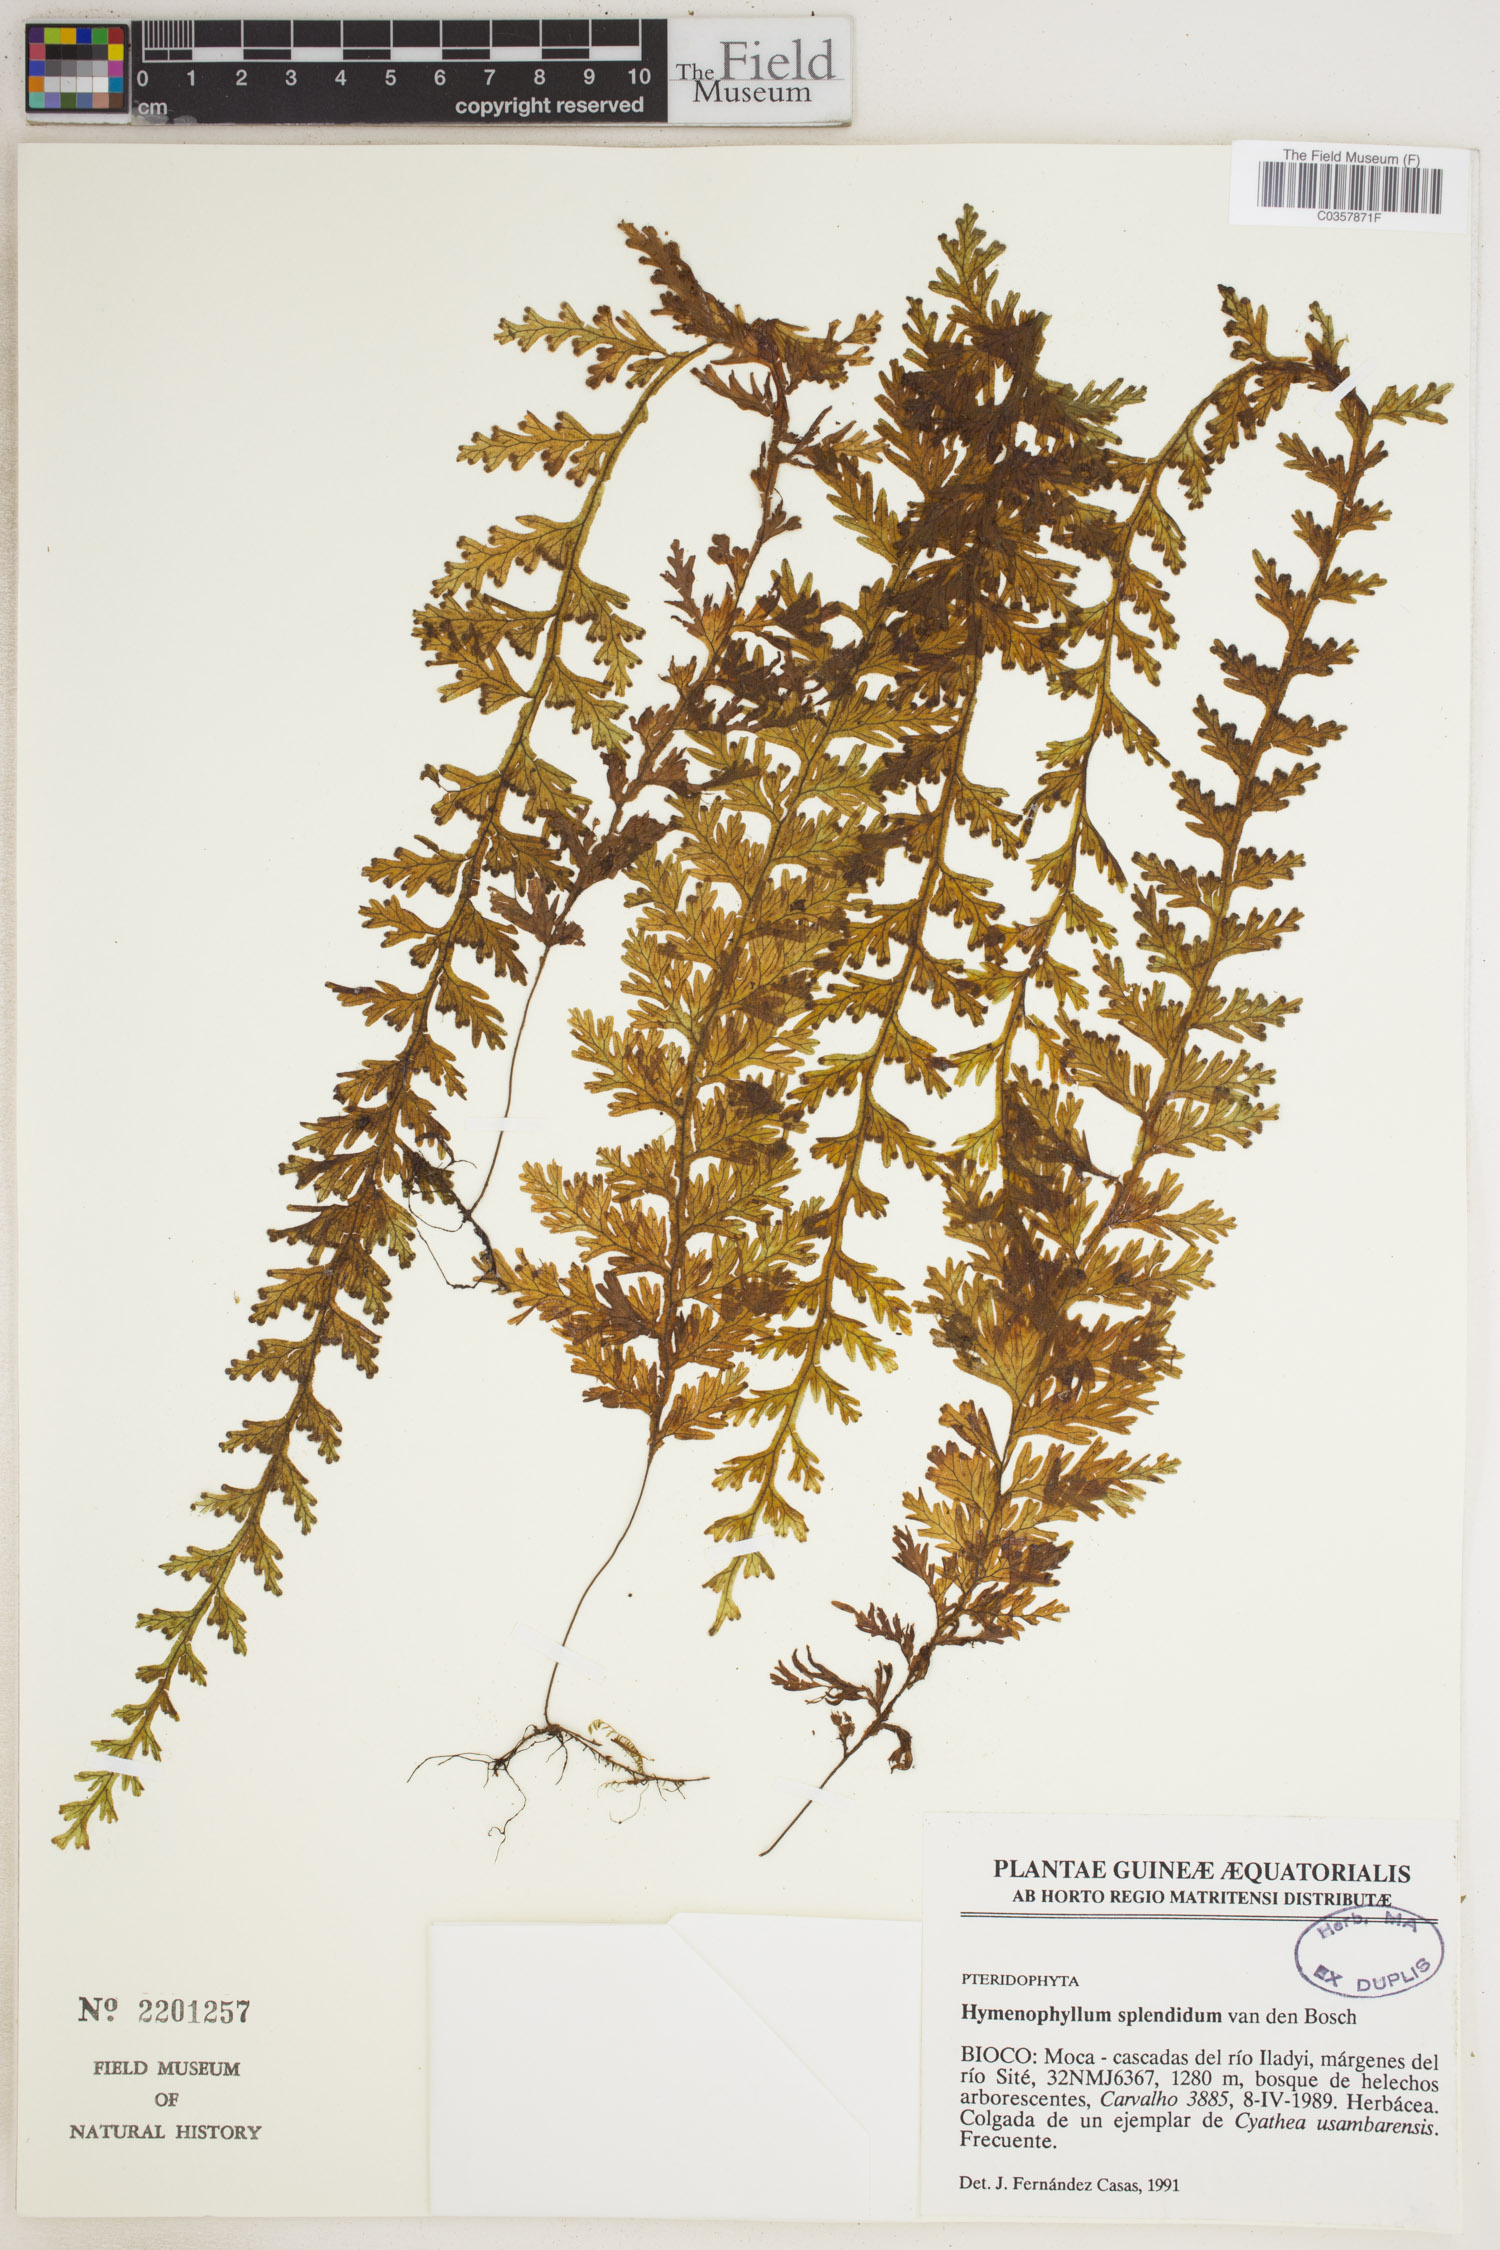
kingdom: Plantae
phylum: Tracheophyta
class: Polypodiopsida
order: Hymenophyllales
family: Hymenophyllaceae
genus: Hymenophyllum
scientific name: Hymenophyllum splendidum
